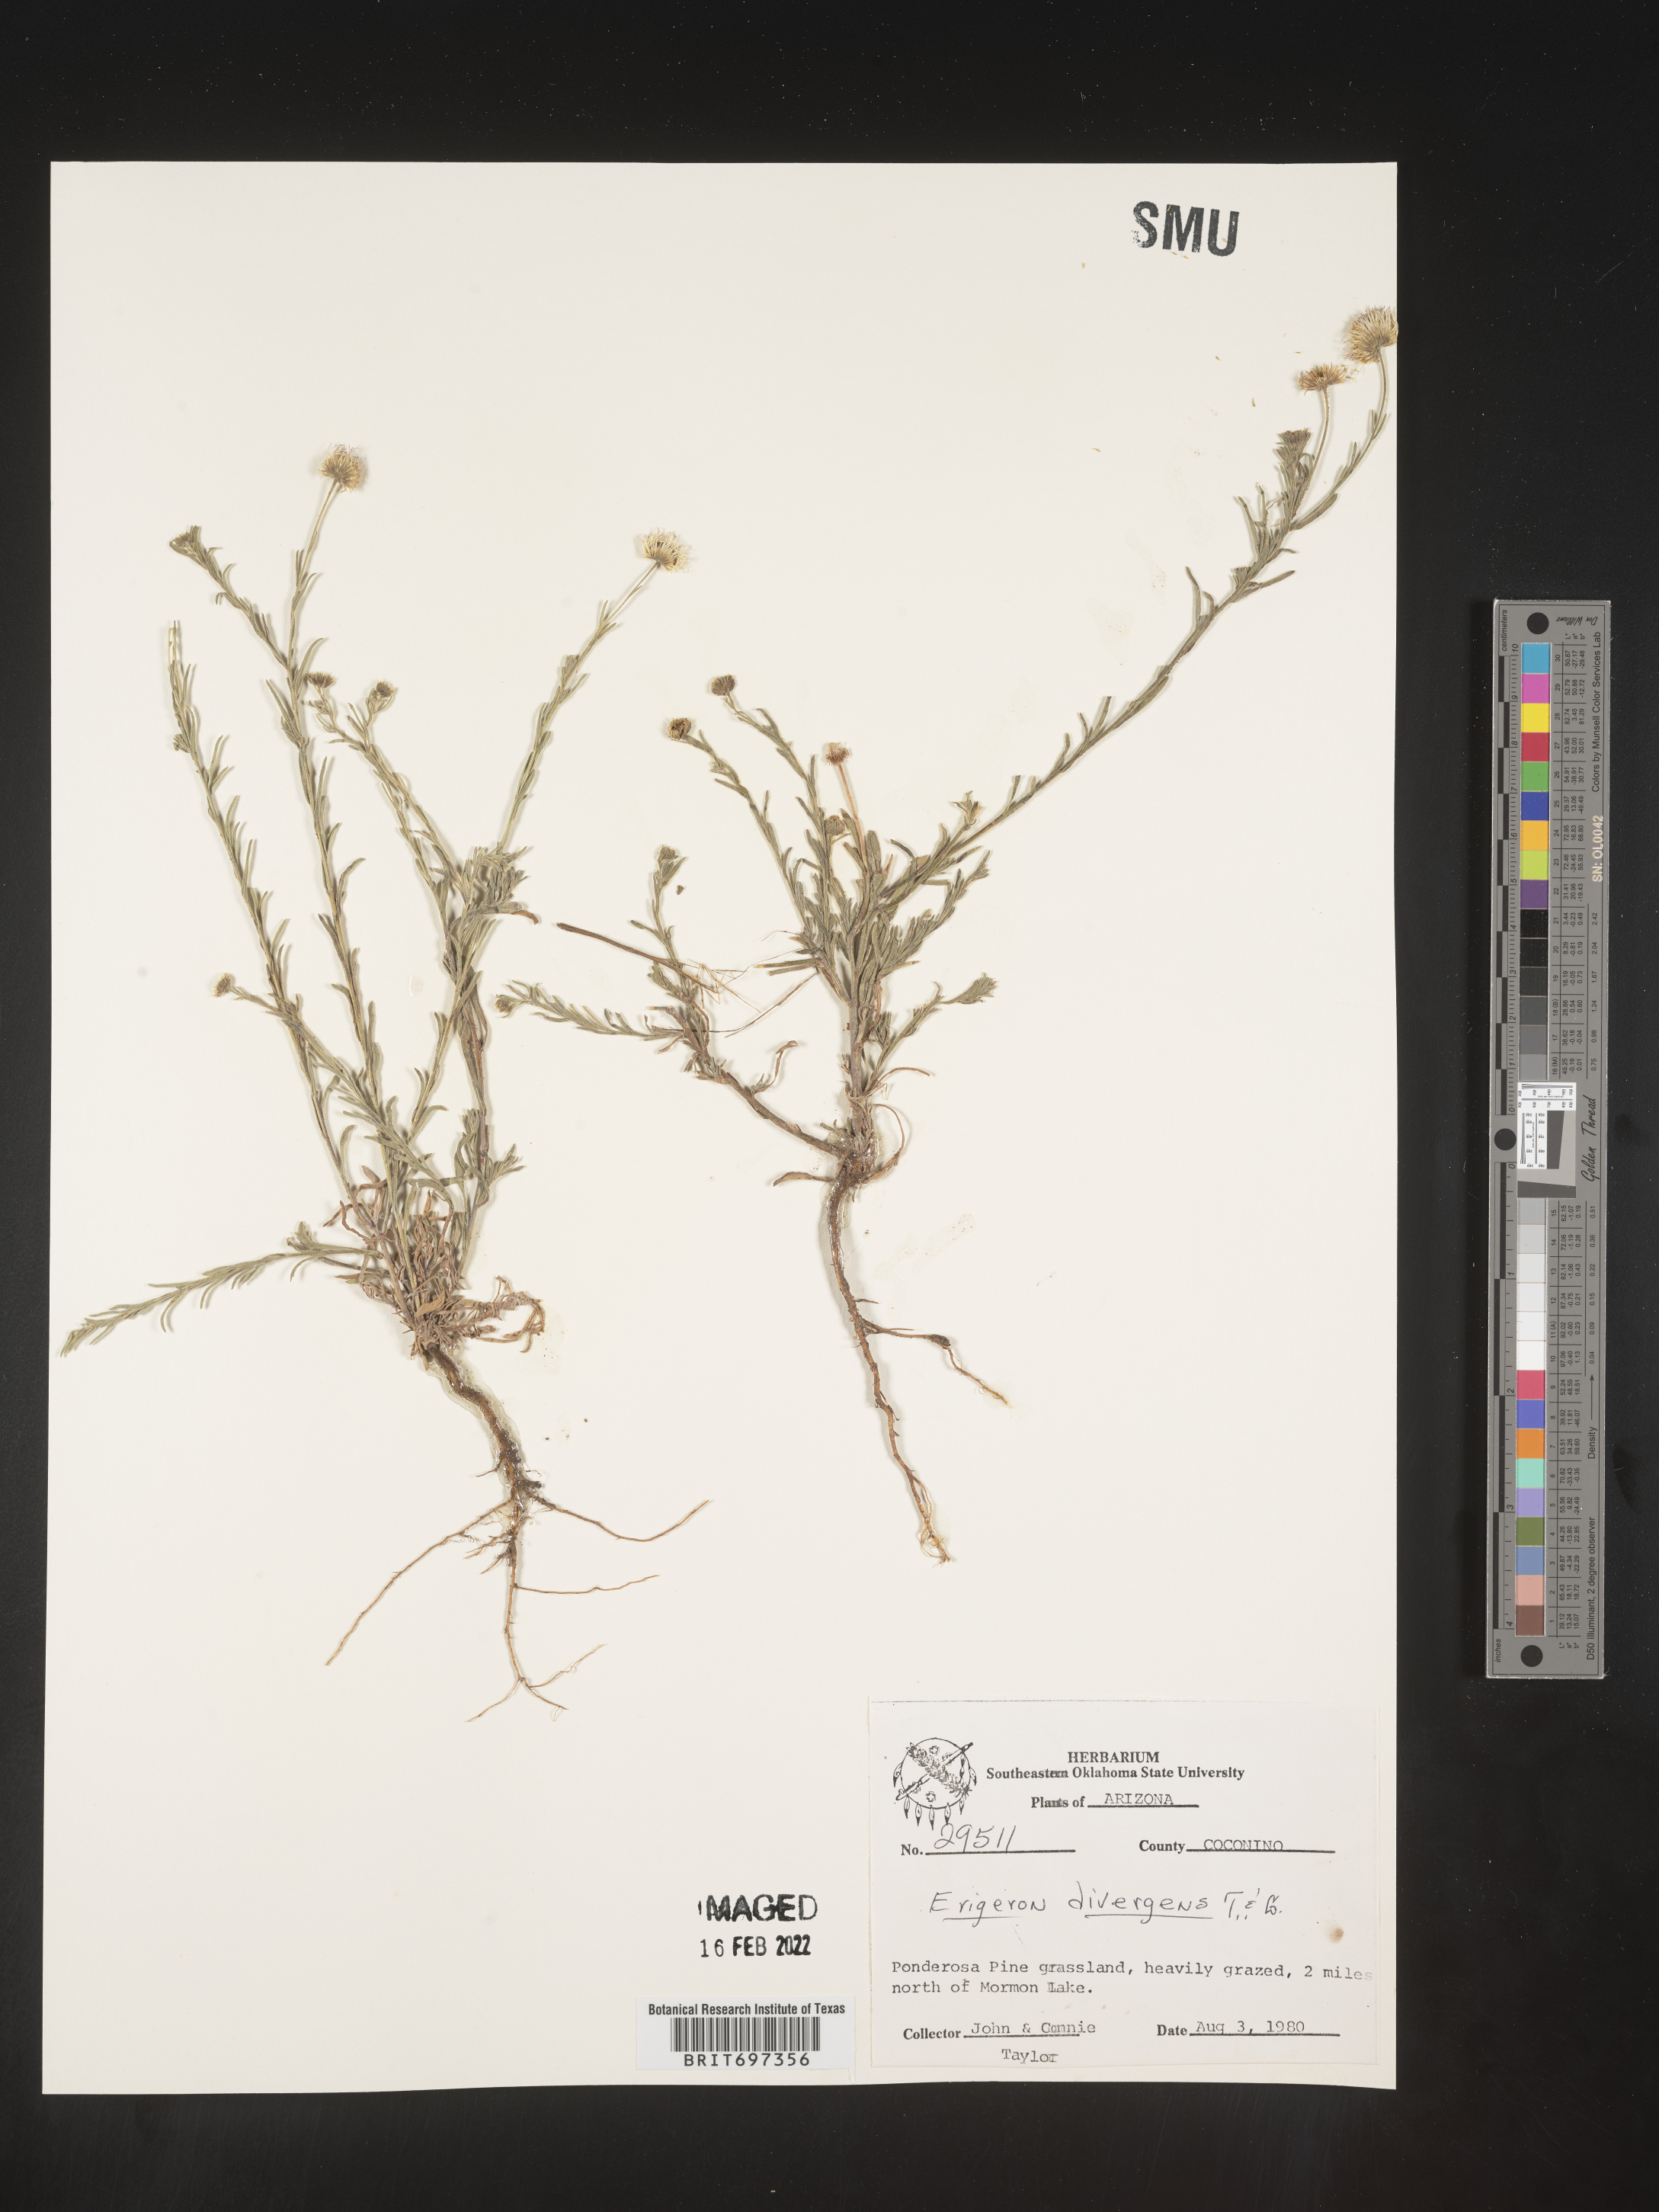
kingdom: Plantae
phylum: Tracheophyta
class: Magnoliopsida
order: Asterales
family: Asteraceae
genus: Erigeron
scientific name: Erigeron divergens
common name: Diffuse fleabane
